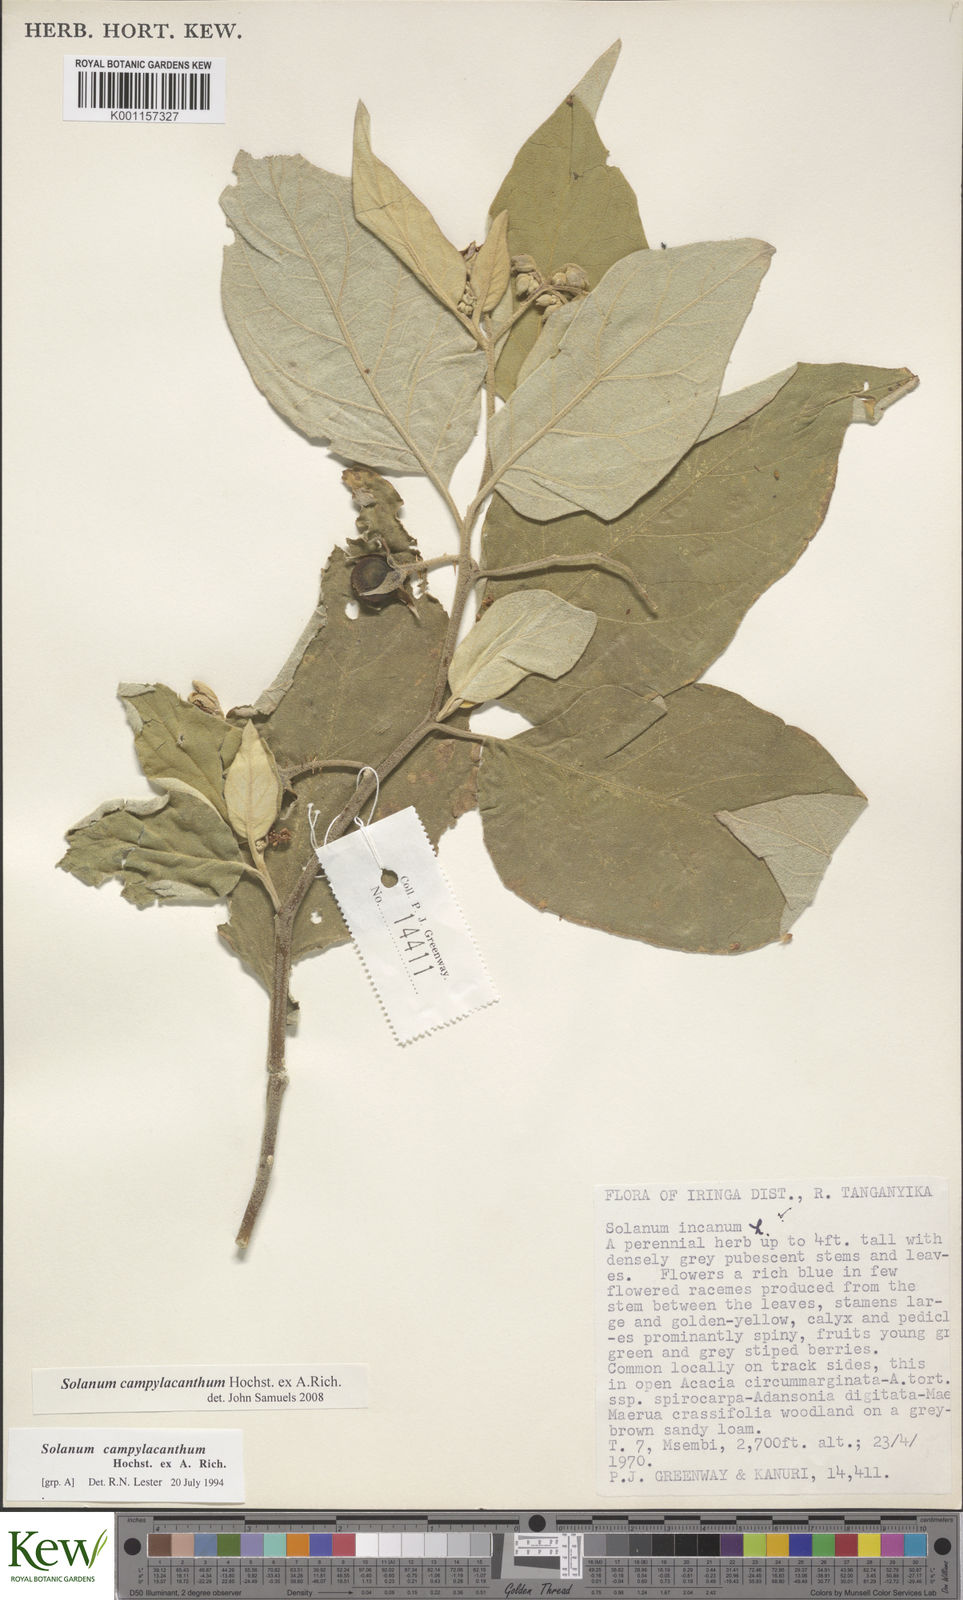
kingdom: Plantae
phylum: Tracheophyta
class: Magnoliopsida
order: Solanales
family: Solanaceae
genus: Solanum
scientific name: Solanum campylacanthum
